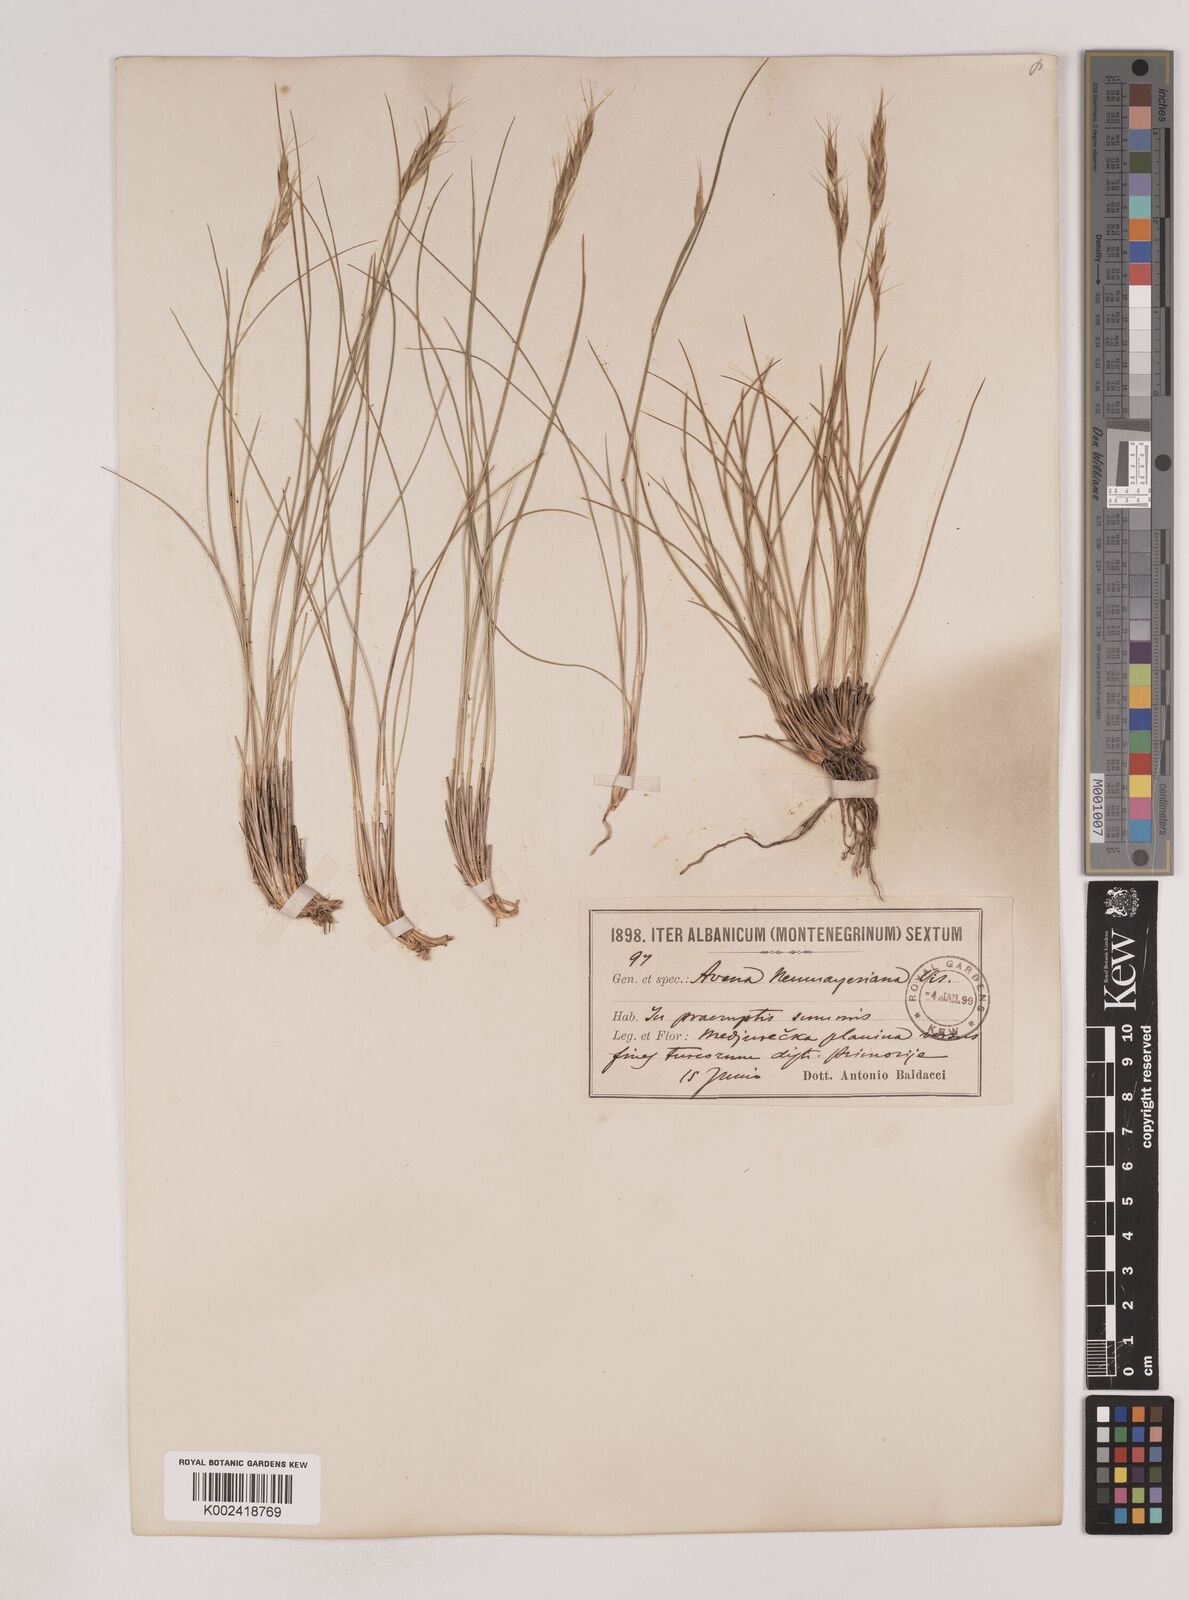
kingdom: Plantae
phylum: Tracheophyta
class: Liliopsida
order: Poales
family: Poaceae
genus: Danthoniastrum
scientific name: Danthoniastrum compactum
